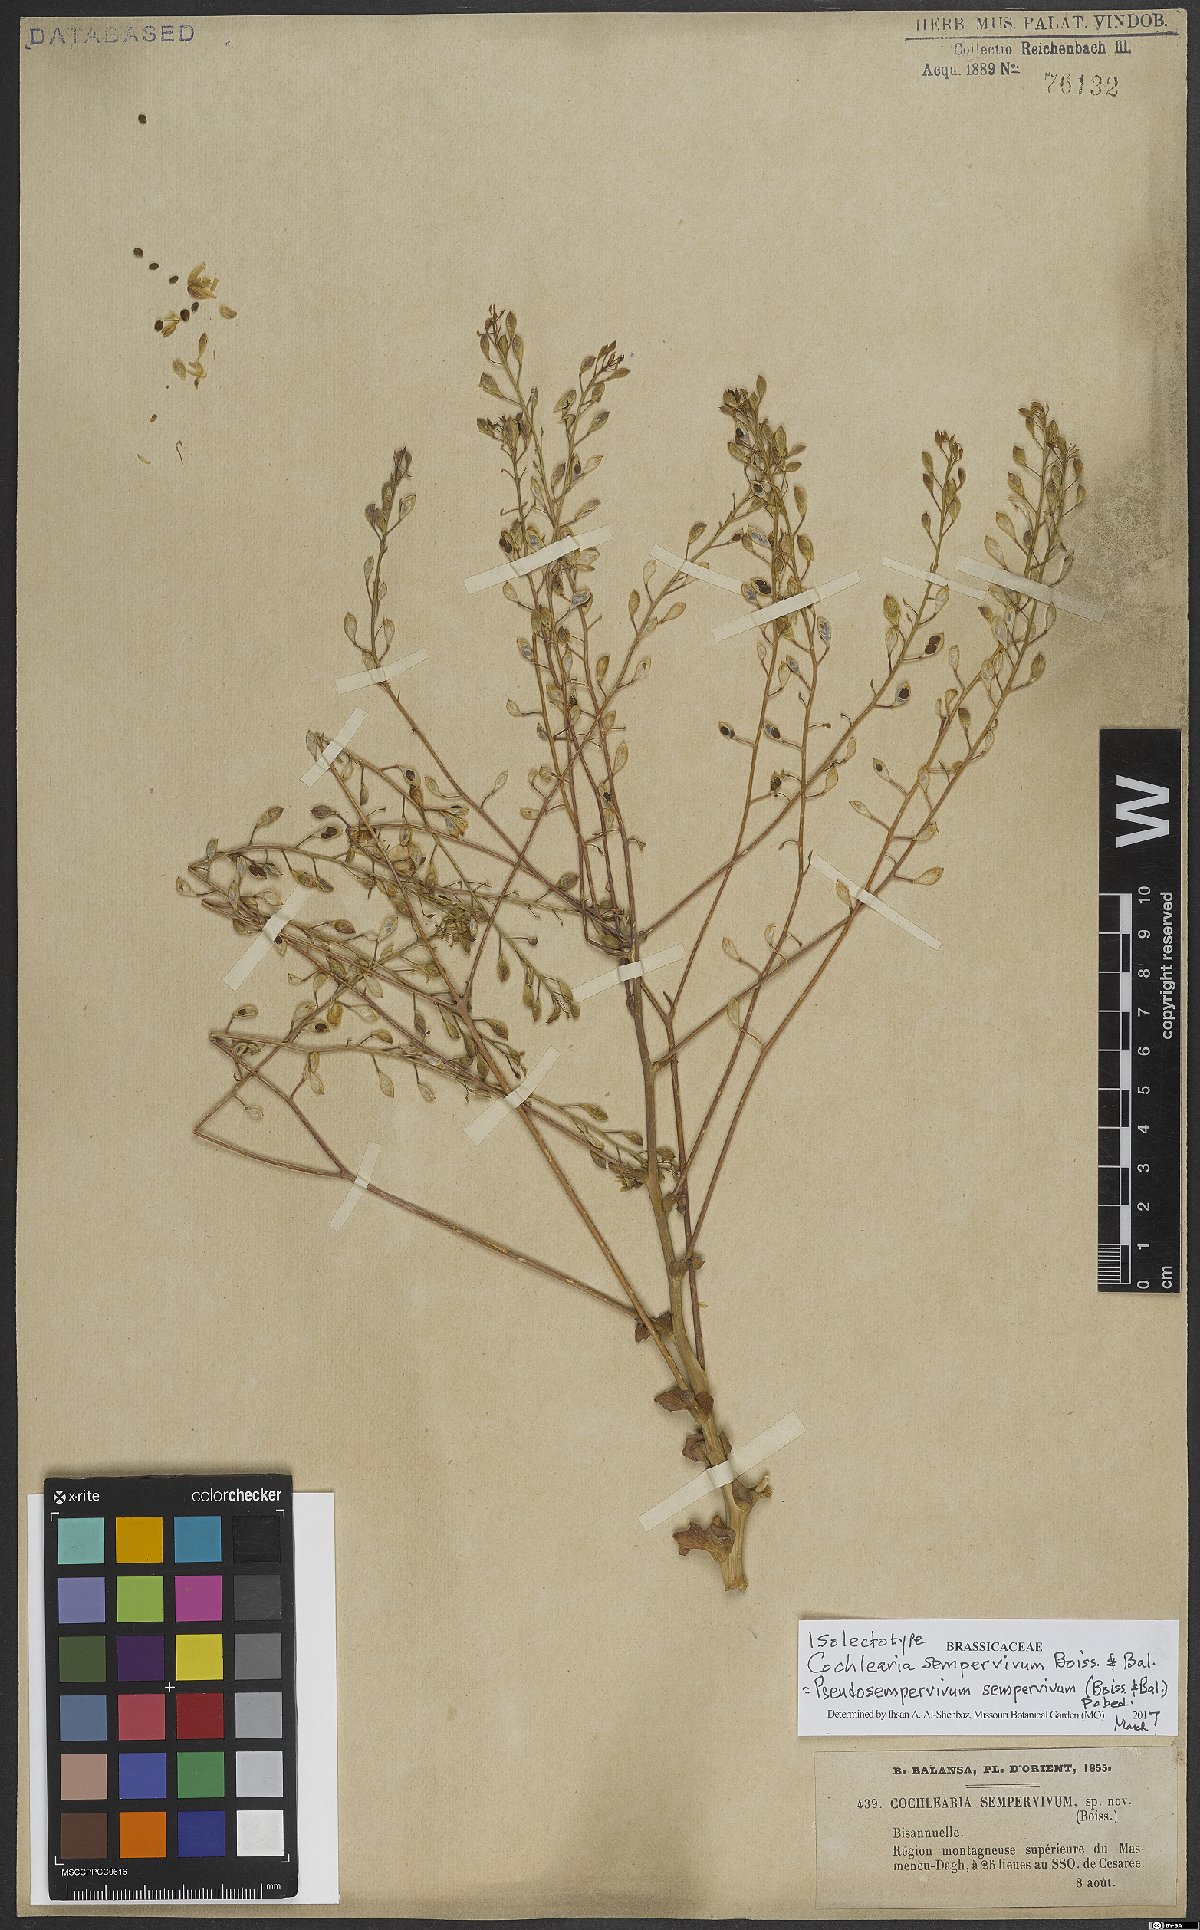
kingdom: Plantae
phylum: Tracheophyta
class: Magnoliopsida
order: Brassicales
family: Brassicaceae
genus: Pseudosempervivum
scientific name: Pseudosempervivum sempervivum
